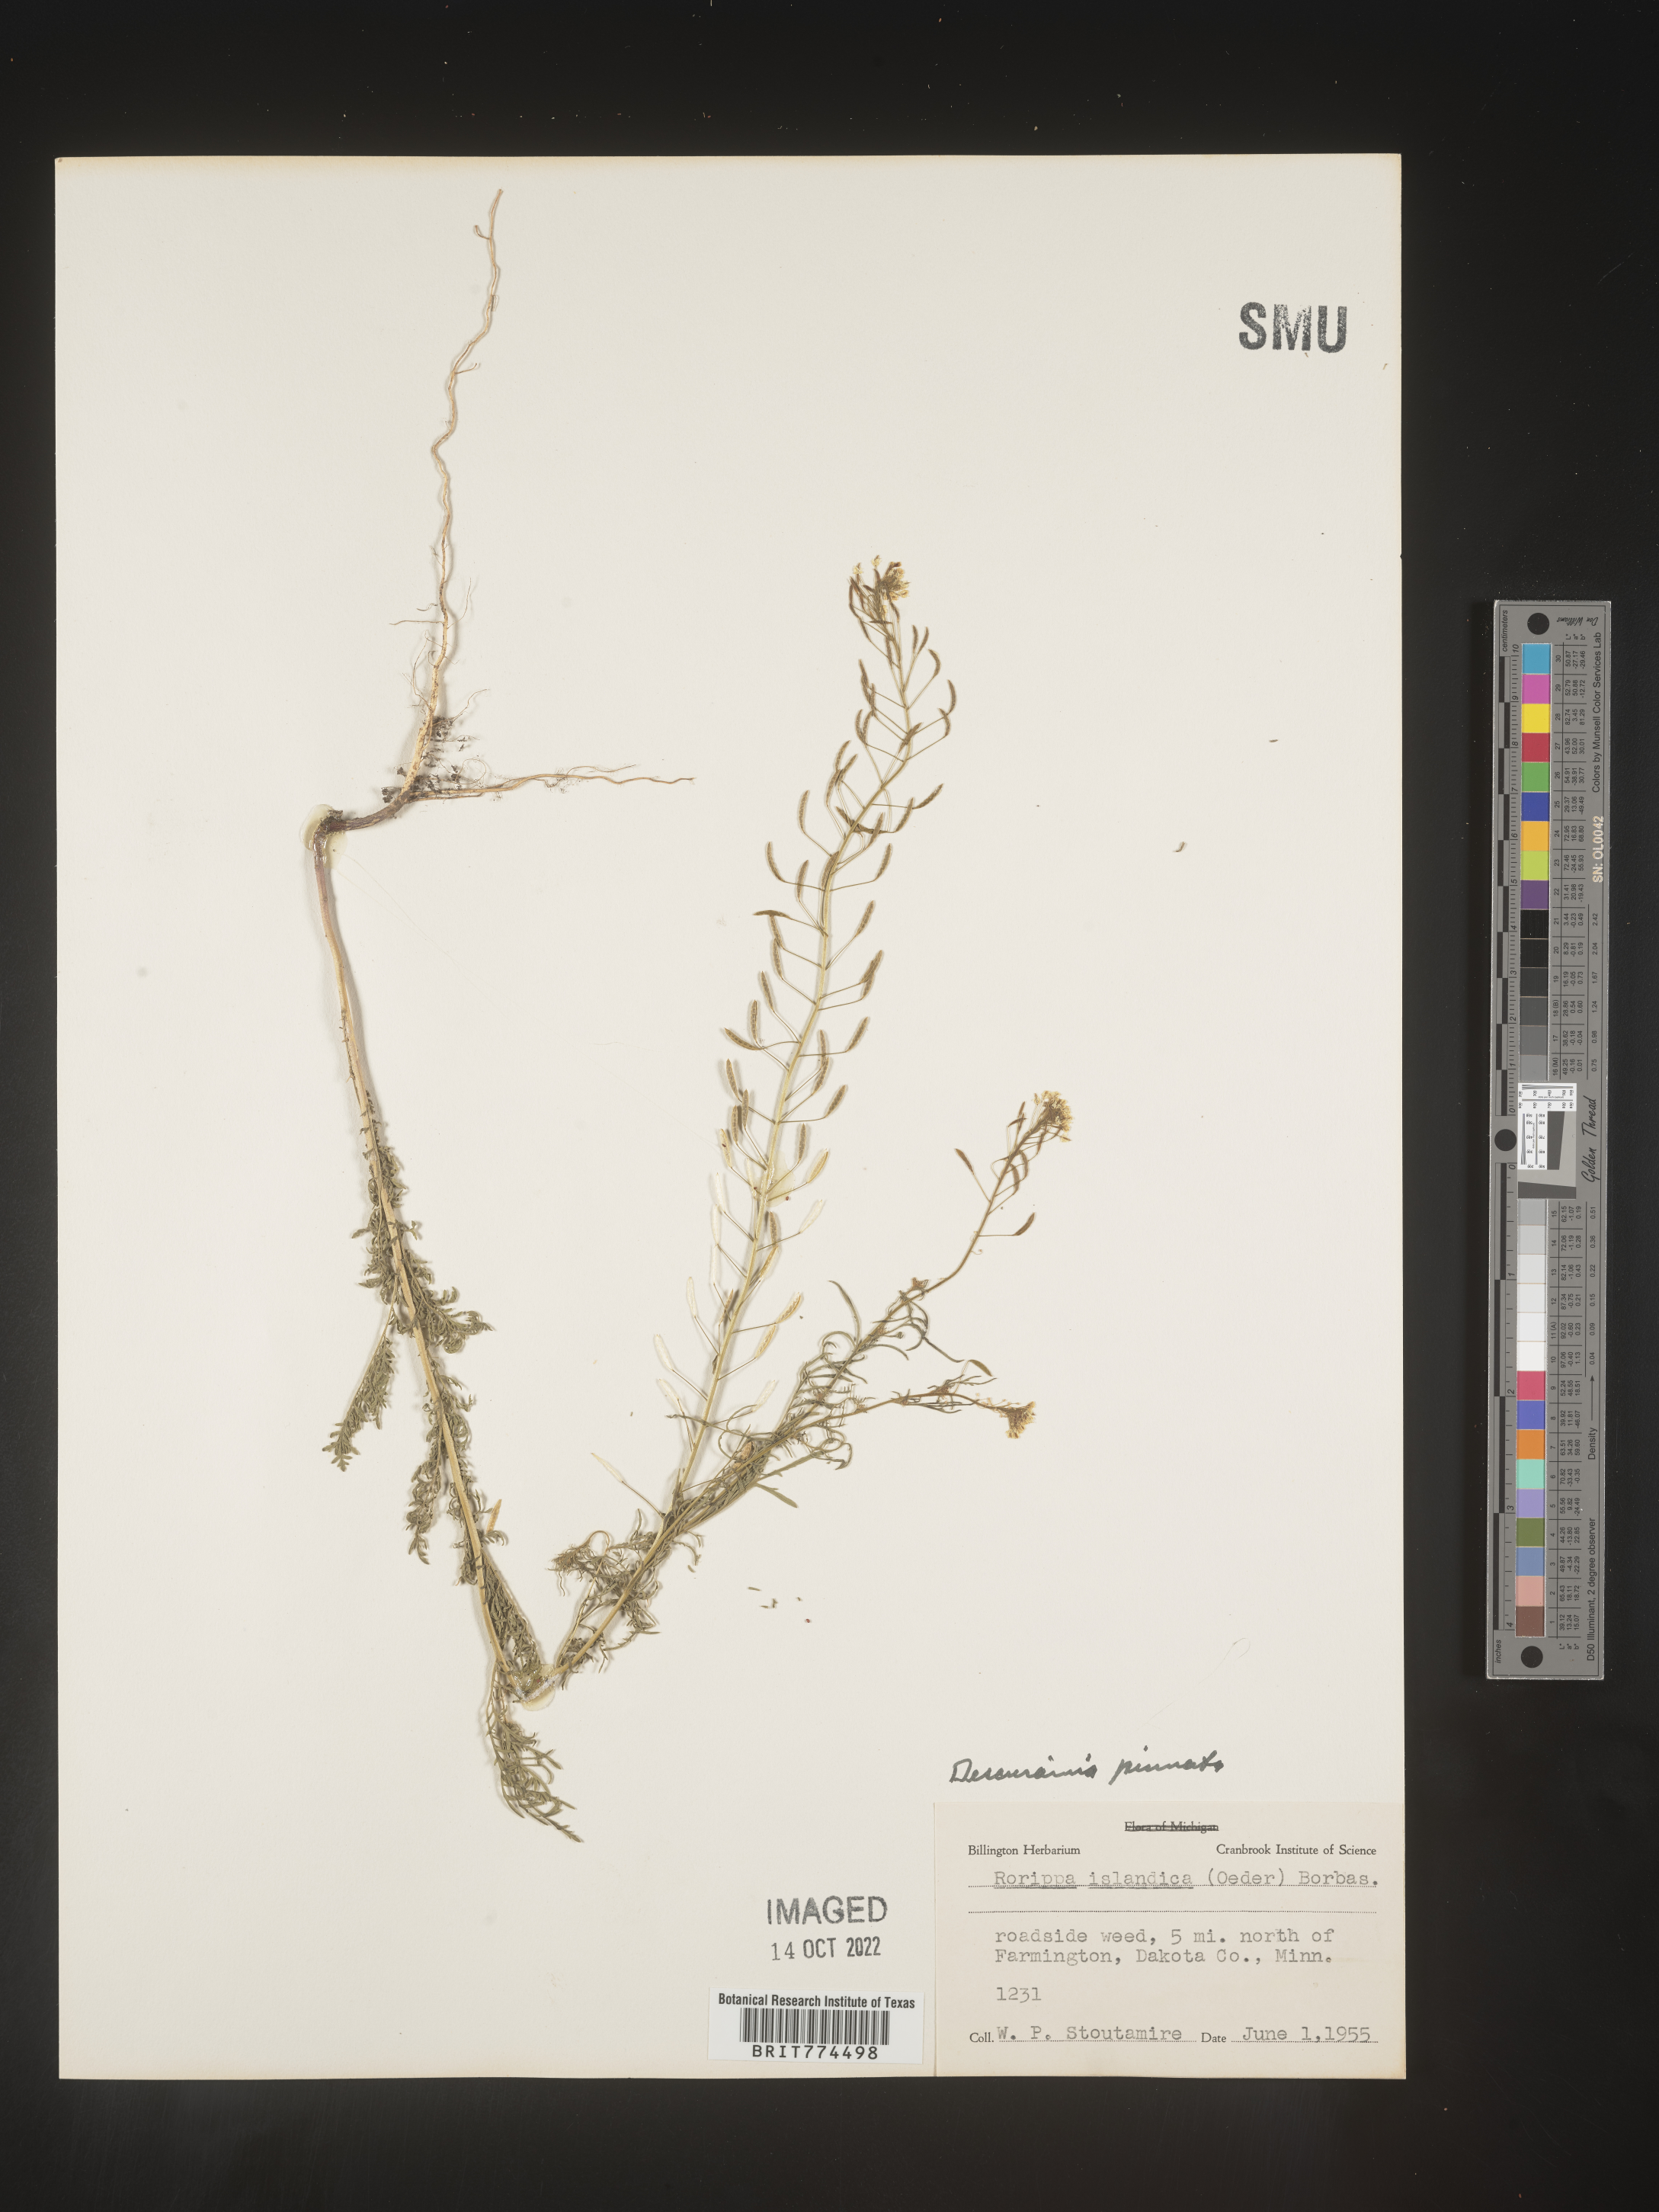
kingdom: Plantae
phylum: Tracheophyta
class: Magnoliopsida
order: Brassicales
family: Brassicaceae
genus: Descurainia
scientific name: Descurainia pinnata
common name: Western tansy mustard
